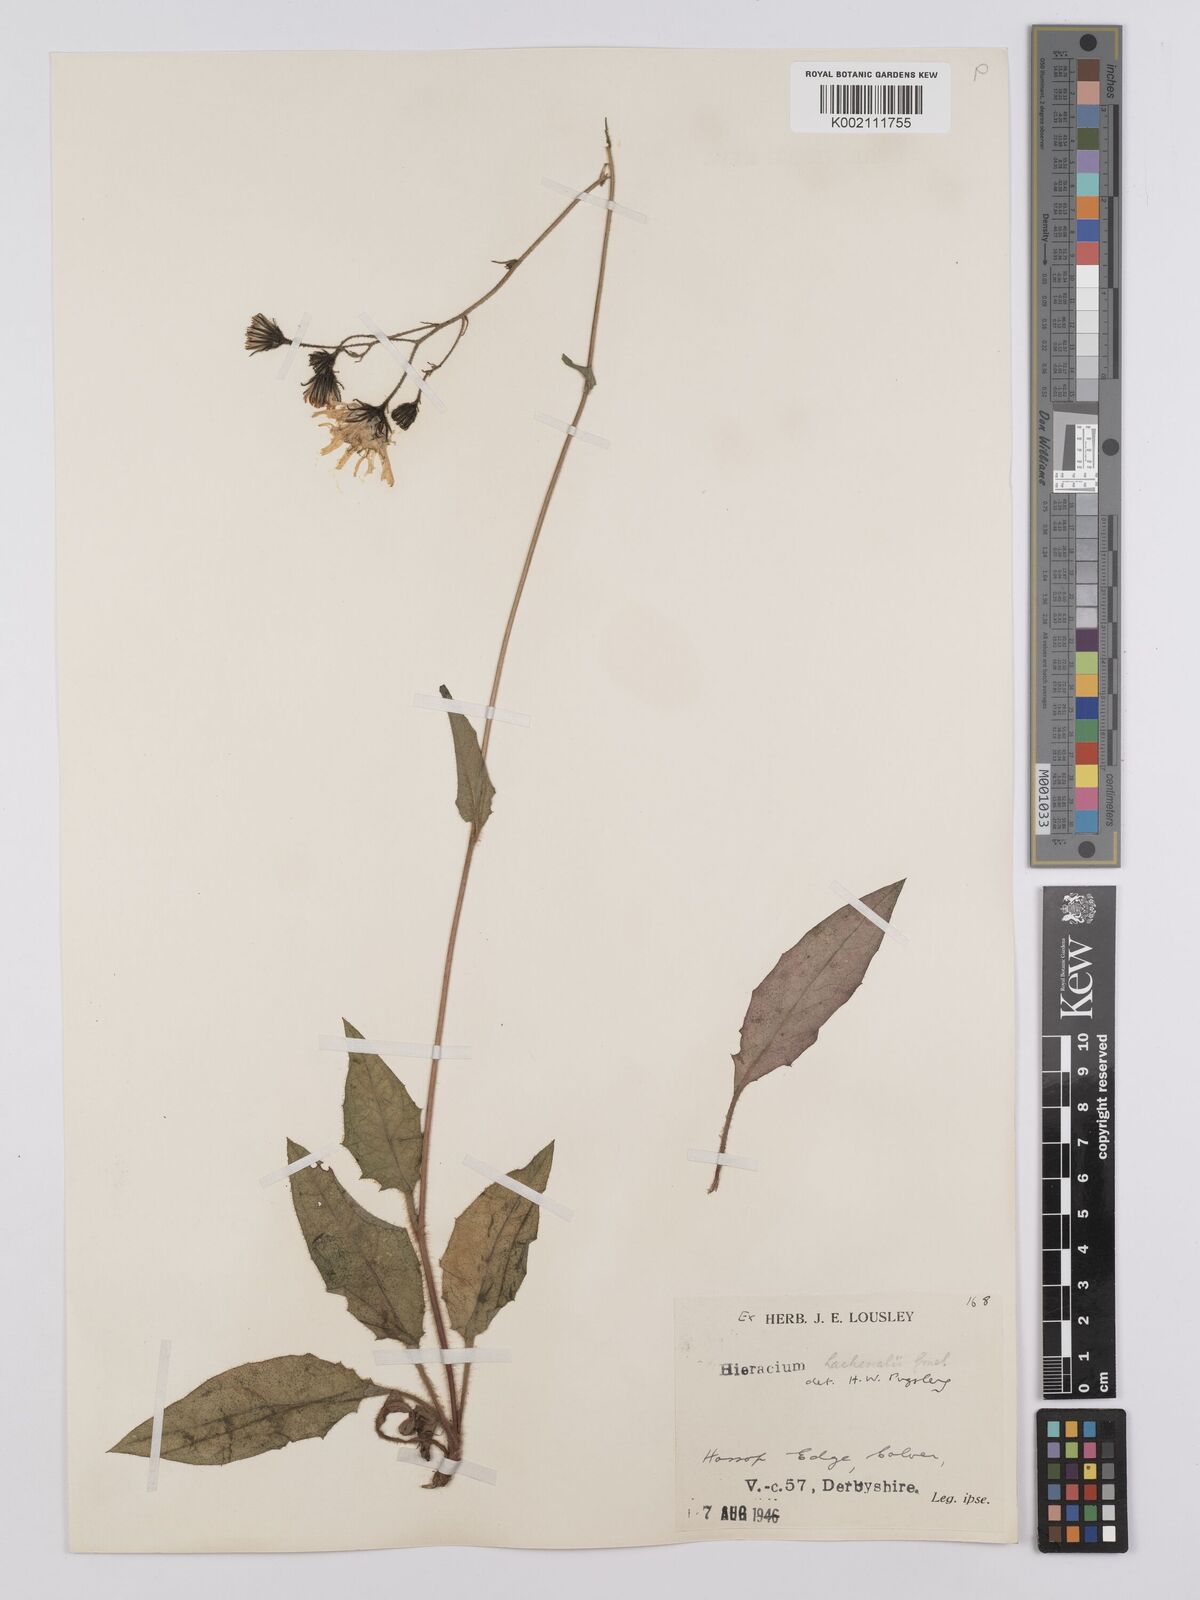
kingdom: Plantae
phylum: Tracheophyta
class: Magnoliopsida
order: Asterales
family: Asteraceae
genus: Hieracium
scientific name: Hieracium lachenalii
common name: Common hawkweed
